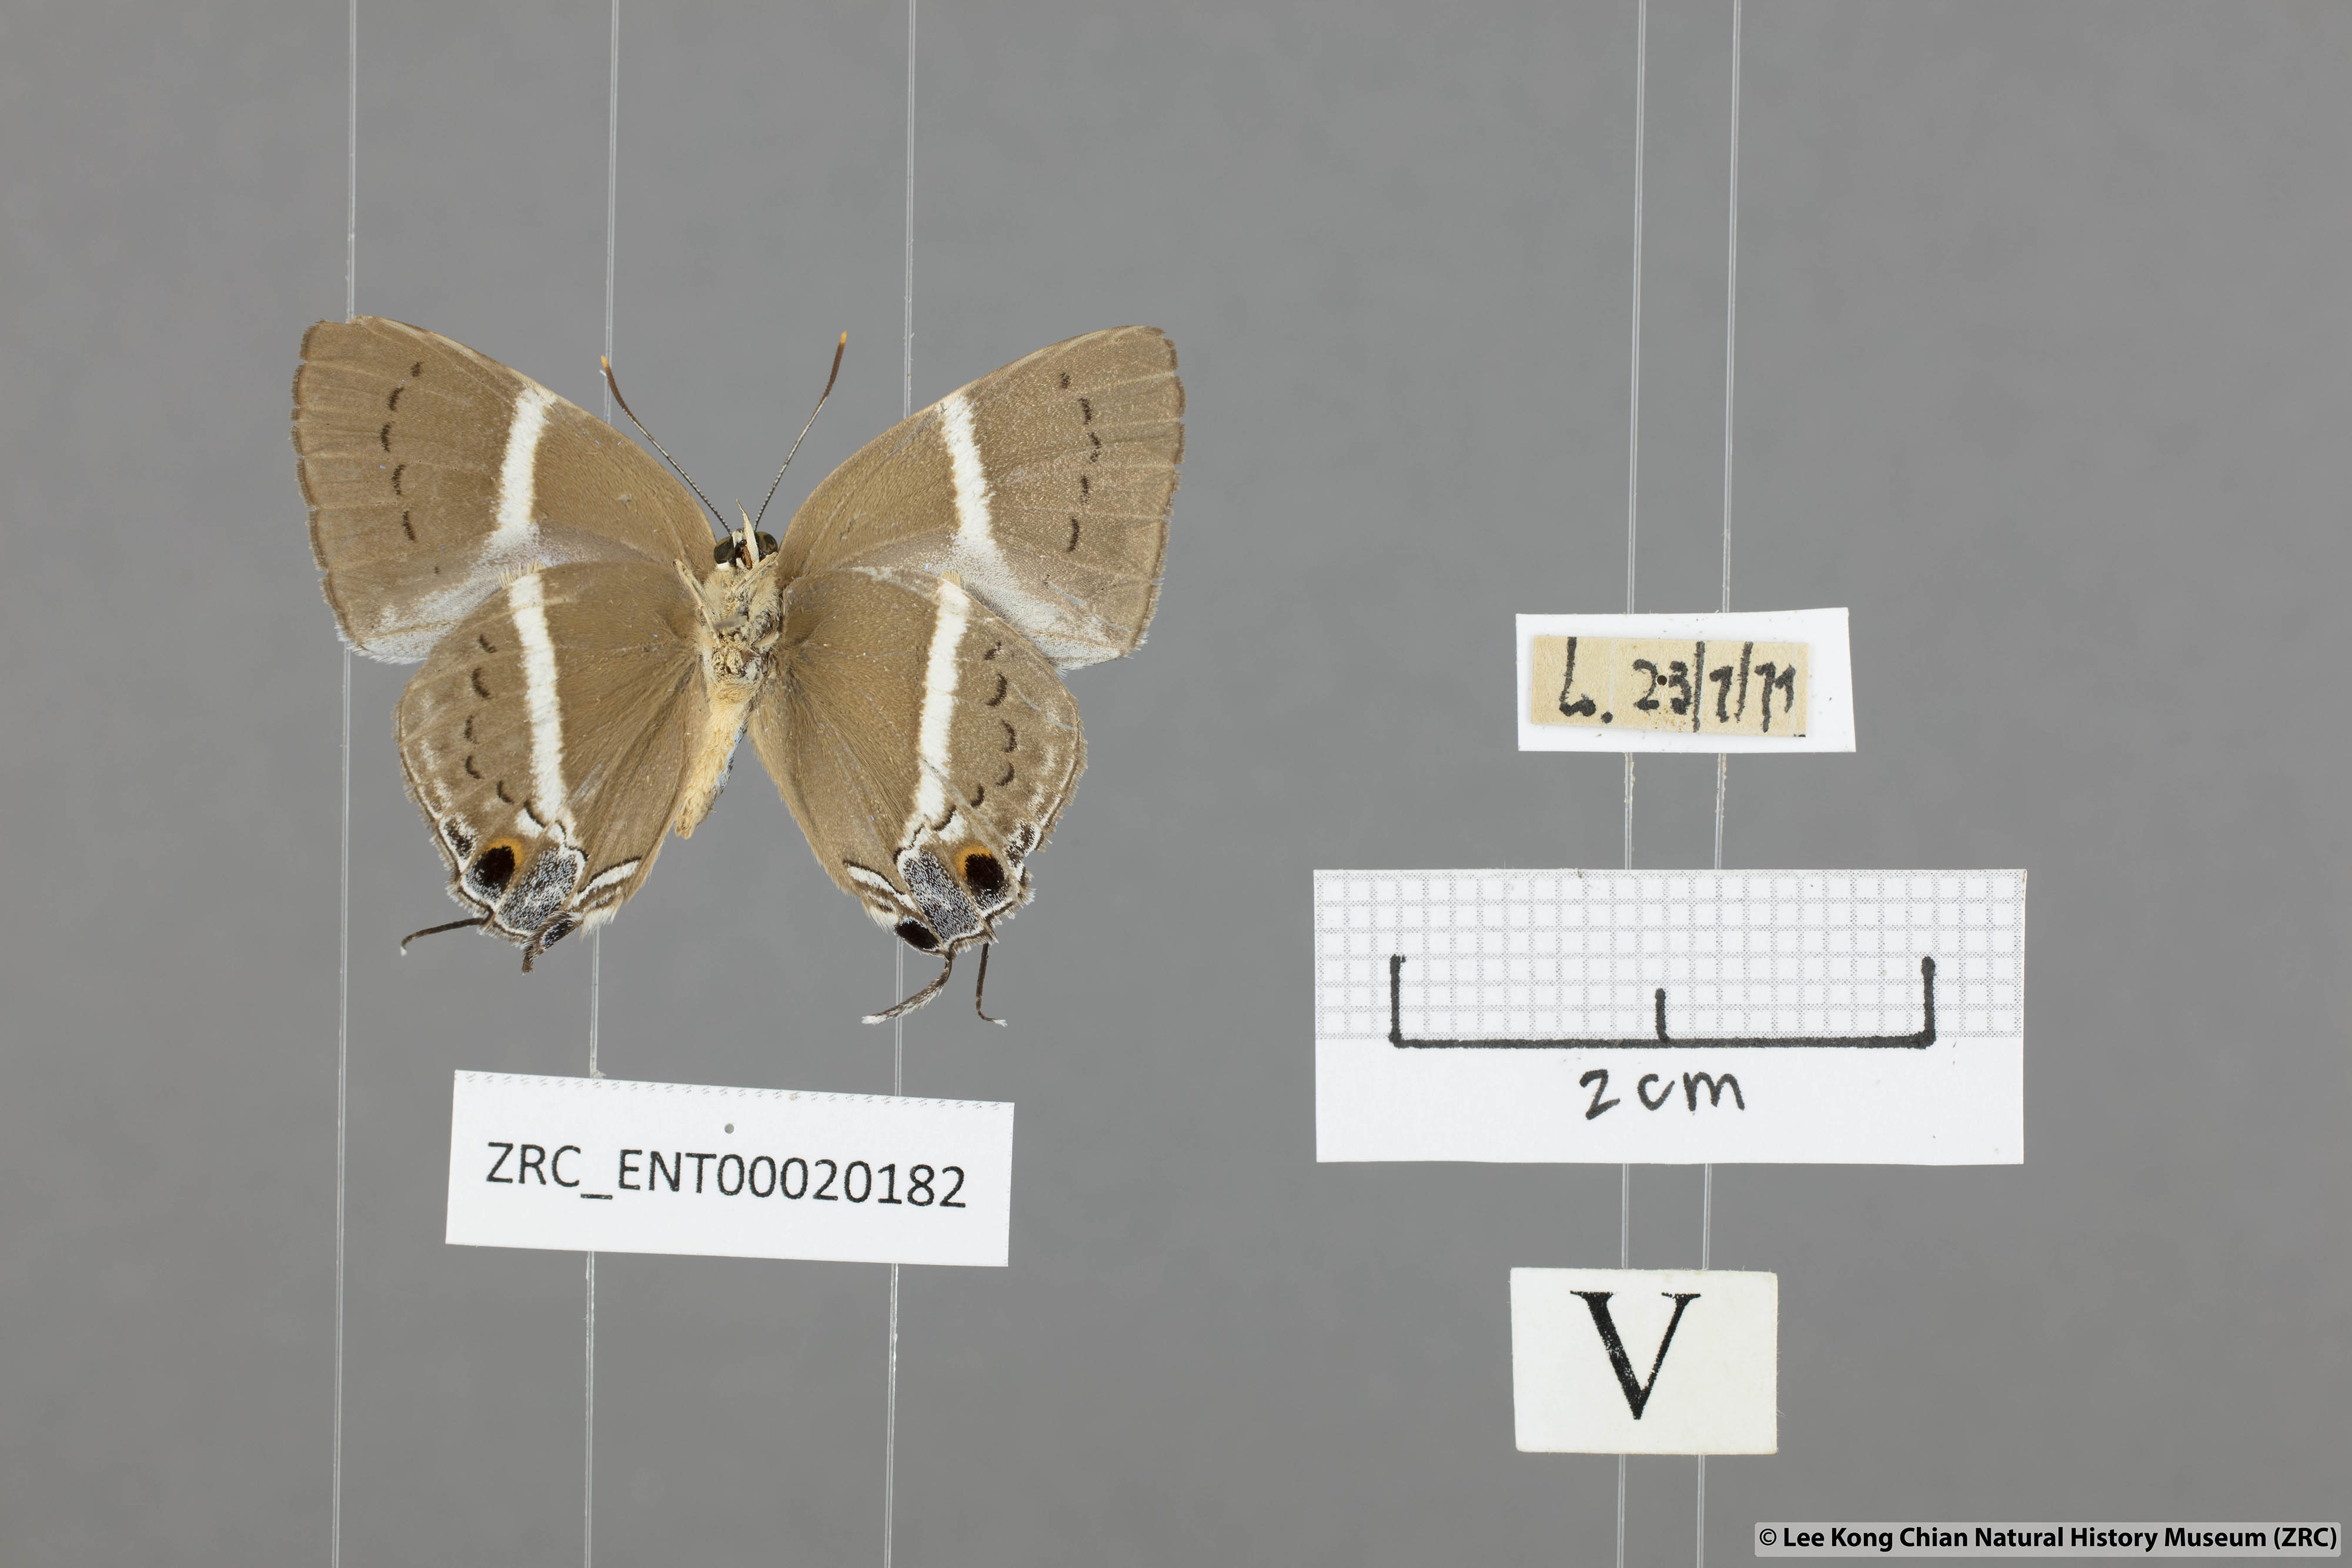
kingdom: Animalia
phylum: Arthropoda
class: Insecta
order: Lepidoptera
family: Lycaenidae
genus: Dacalana
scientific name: Dacalana vidura
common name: Medium-branded royal
